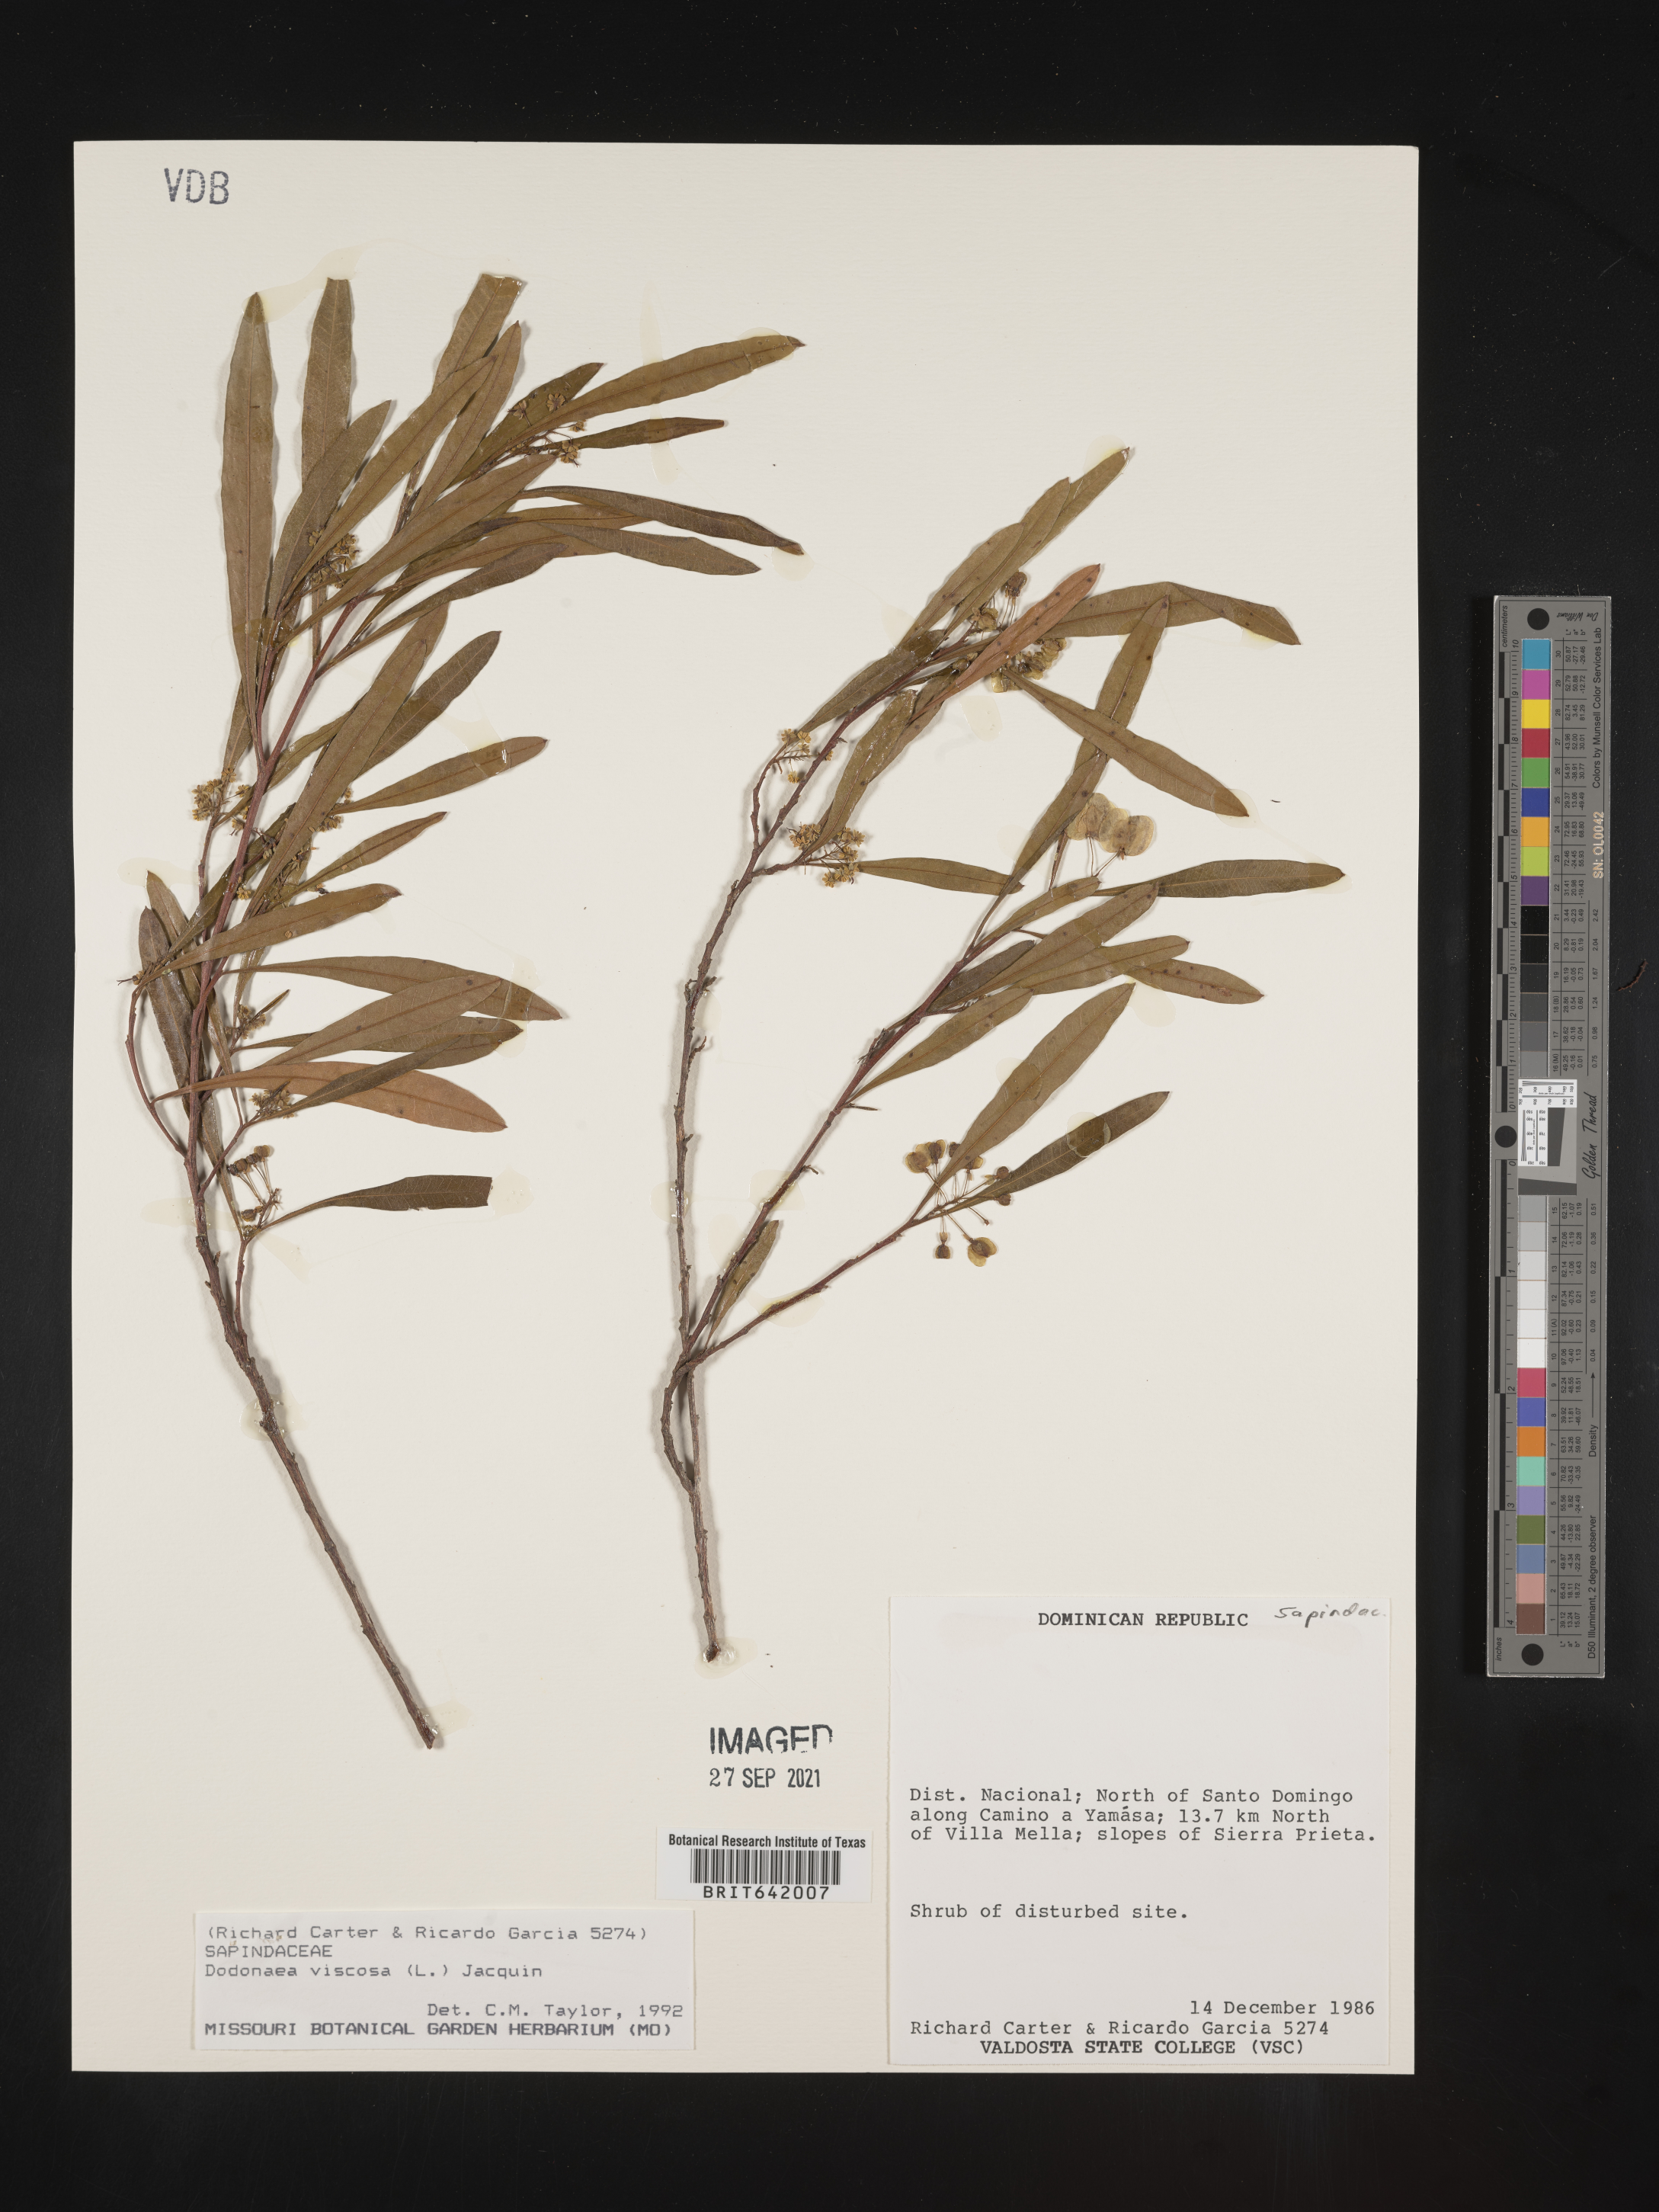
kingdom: Plantae
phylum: Tracheophyta
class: Magnoliopsida
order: Sapindales
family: Sapindaceae
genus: Dodonaea
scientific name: Dodonaea
